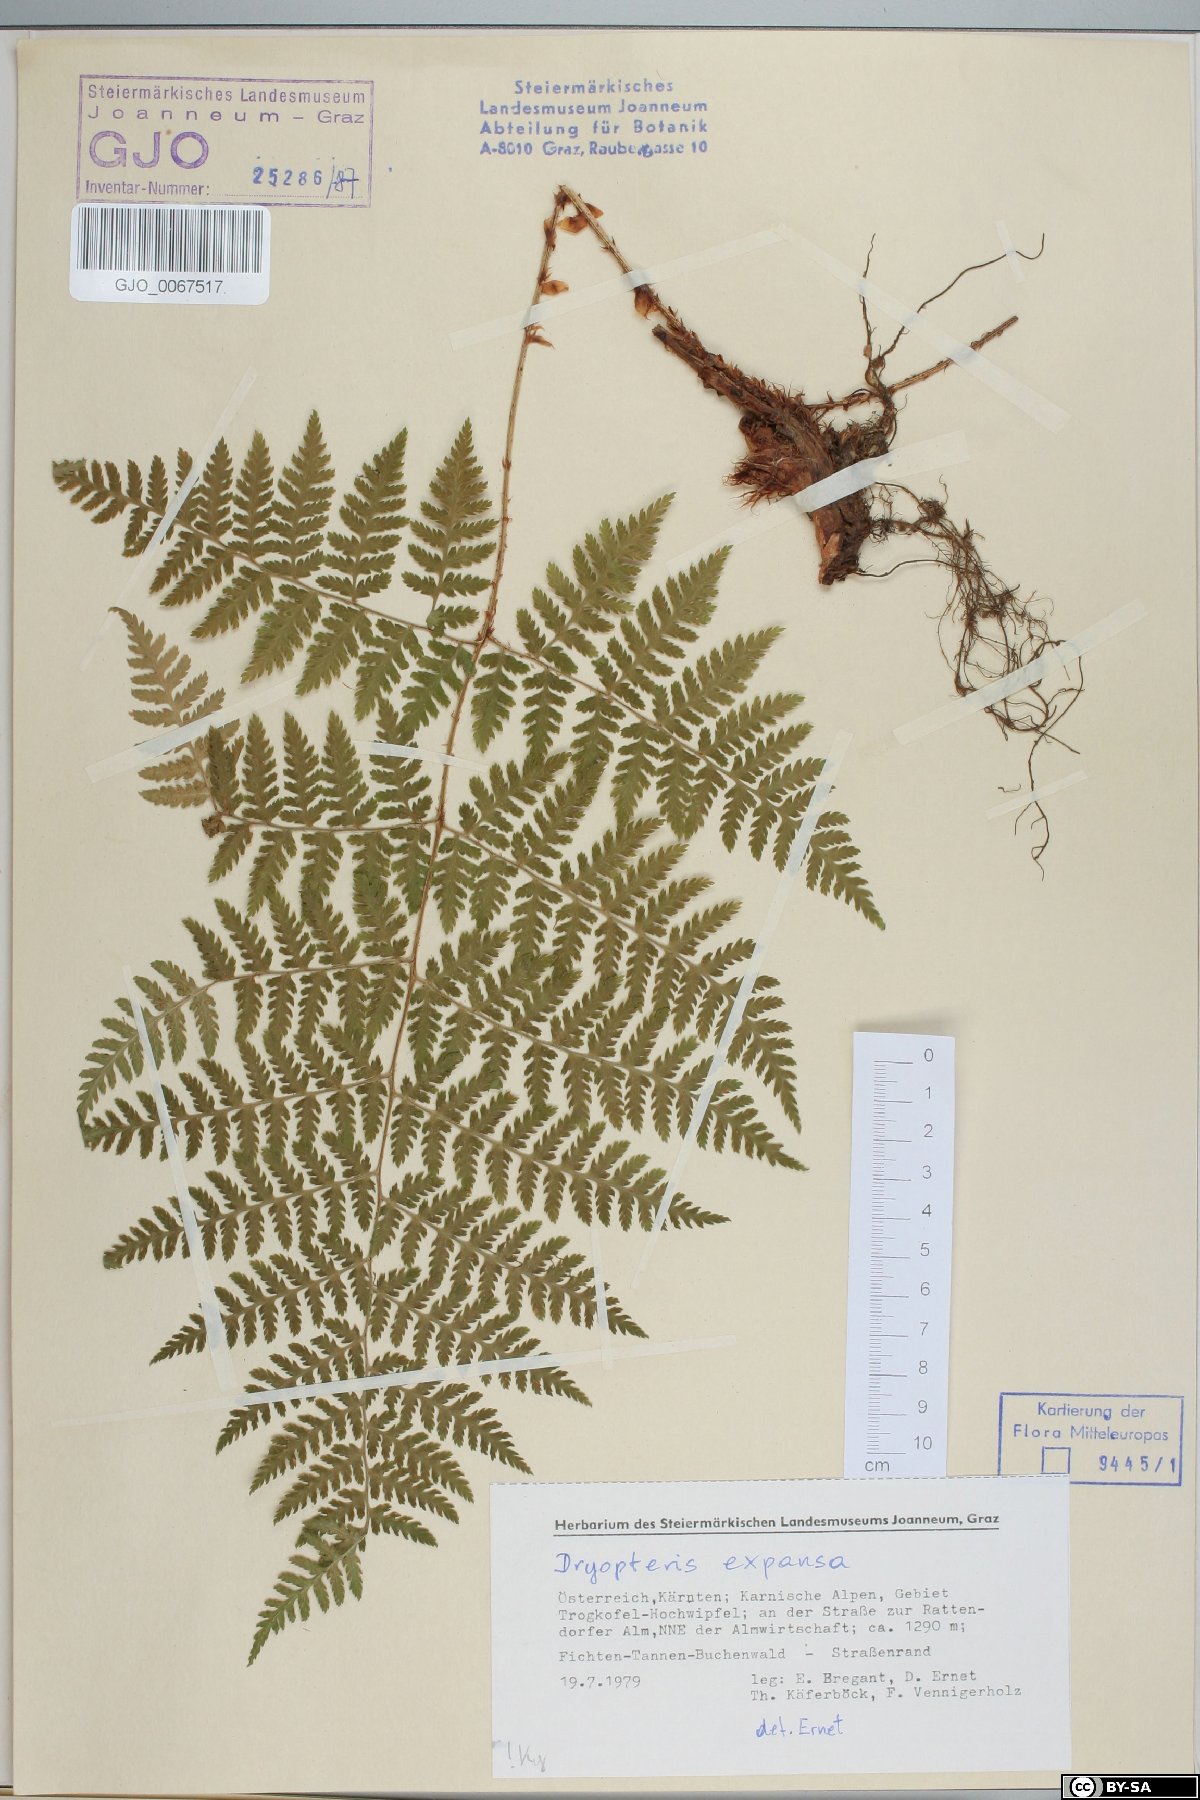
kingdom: Plantae
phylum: Tracheophyta
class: Polypodiopsida
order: Polypodiales
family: Dryopteridaceae
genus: Dryopteris
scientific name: Dryopteris expansa
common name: Northern buckler fern
